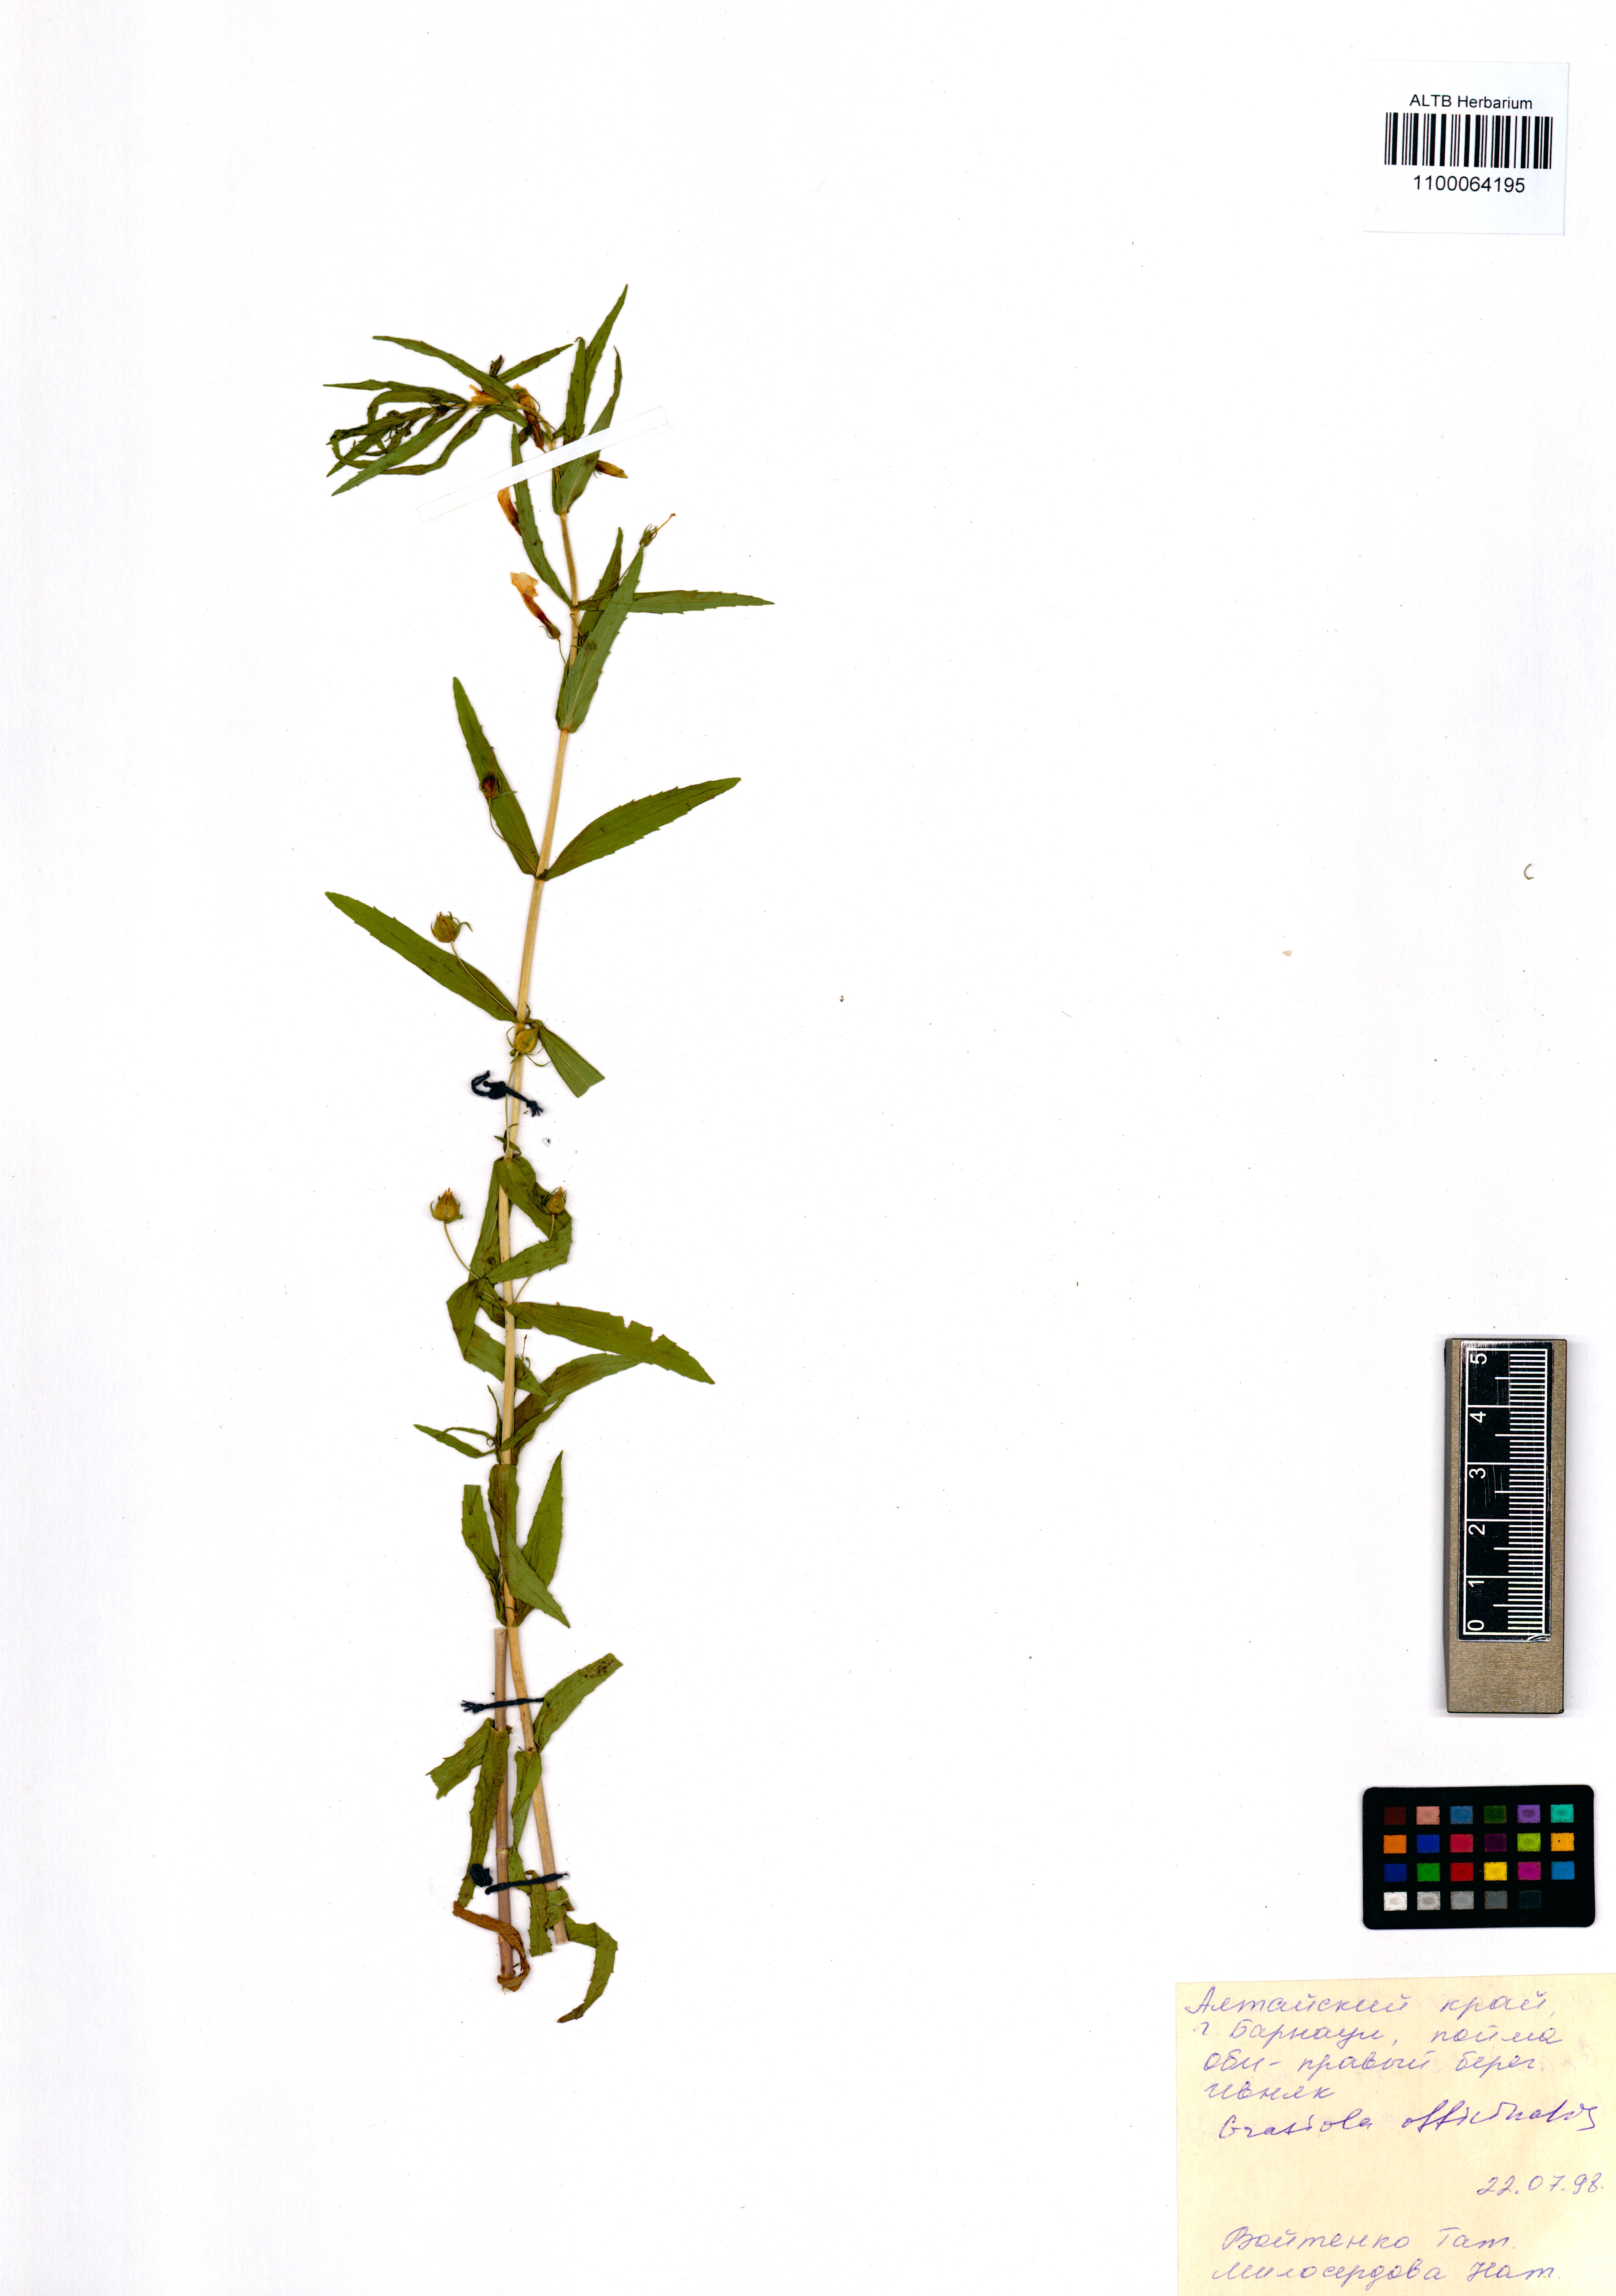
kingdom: Plantae
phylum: Tracheophyta
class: Magnoliopsida
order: Lamiales
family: Plantaginaceae
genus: Gratiola
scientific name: Gratiola officinalis
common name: Gratiola
